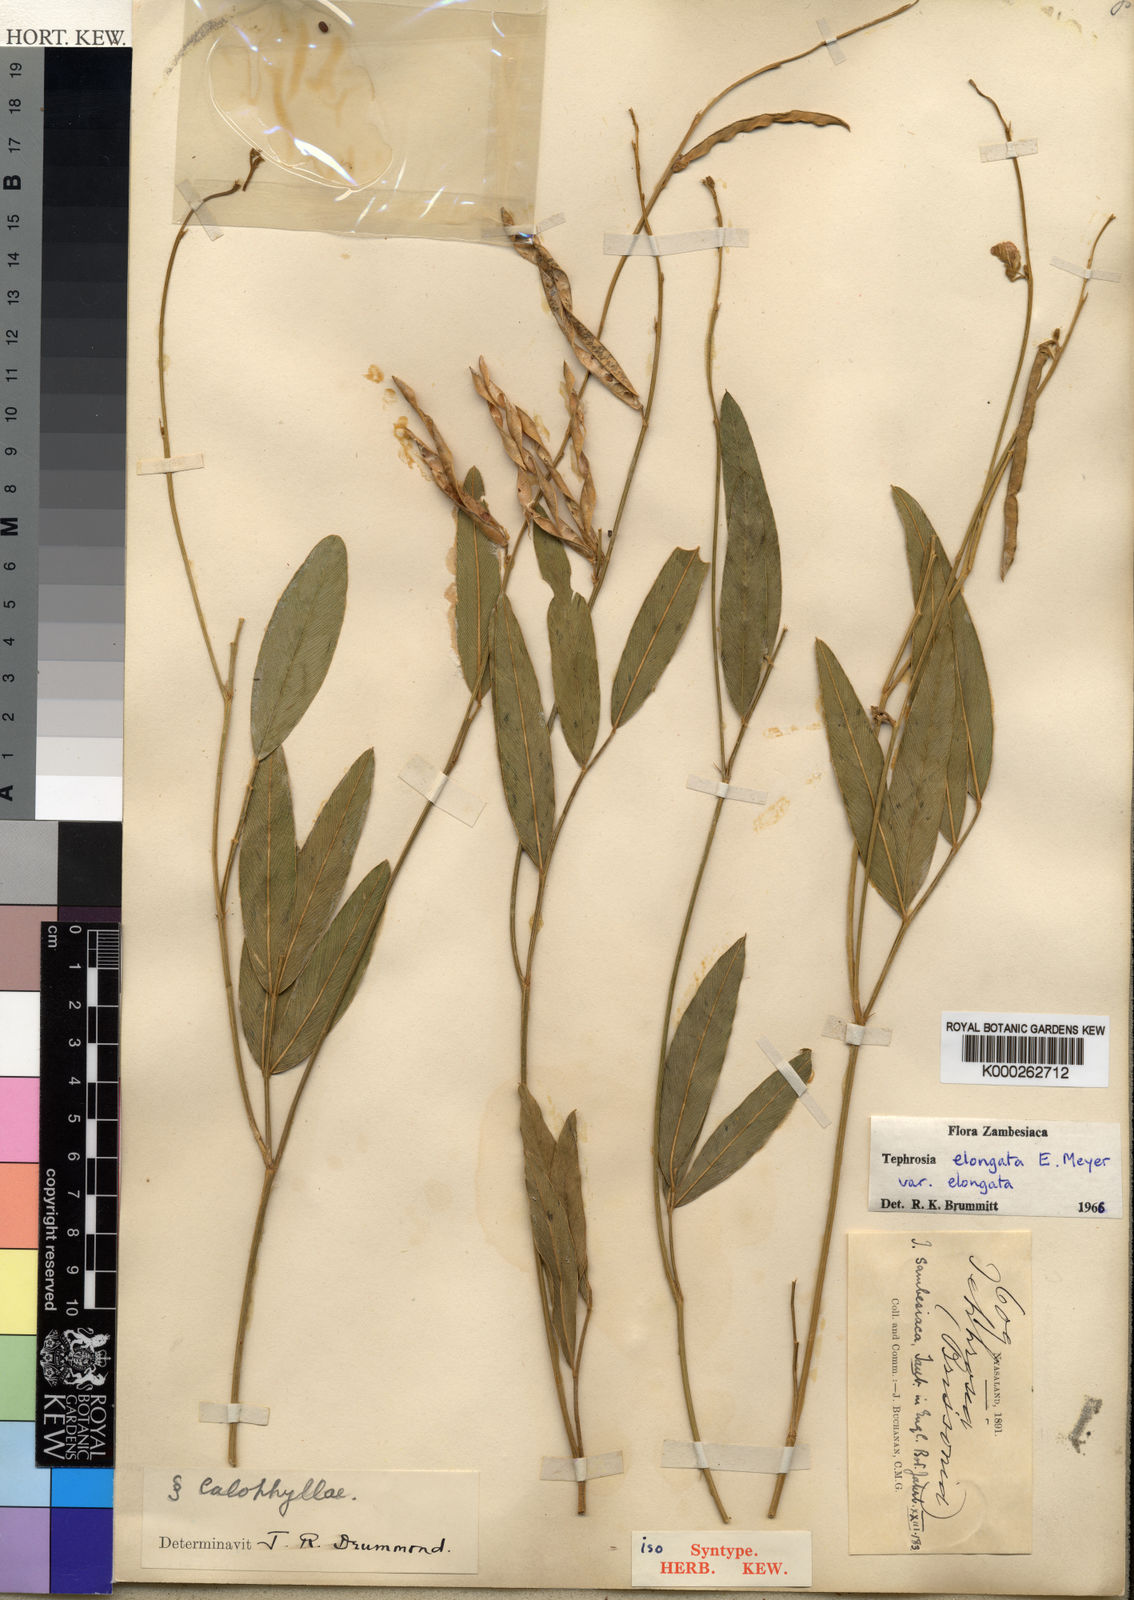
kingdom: Plantae
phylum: Tracheophyta
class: Magnoliopsida
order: Fabales
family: Fabaceae
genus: Tephrosia
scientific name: Tephrosia elongata
